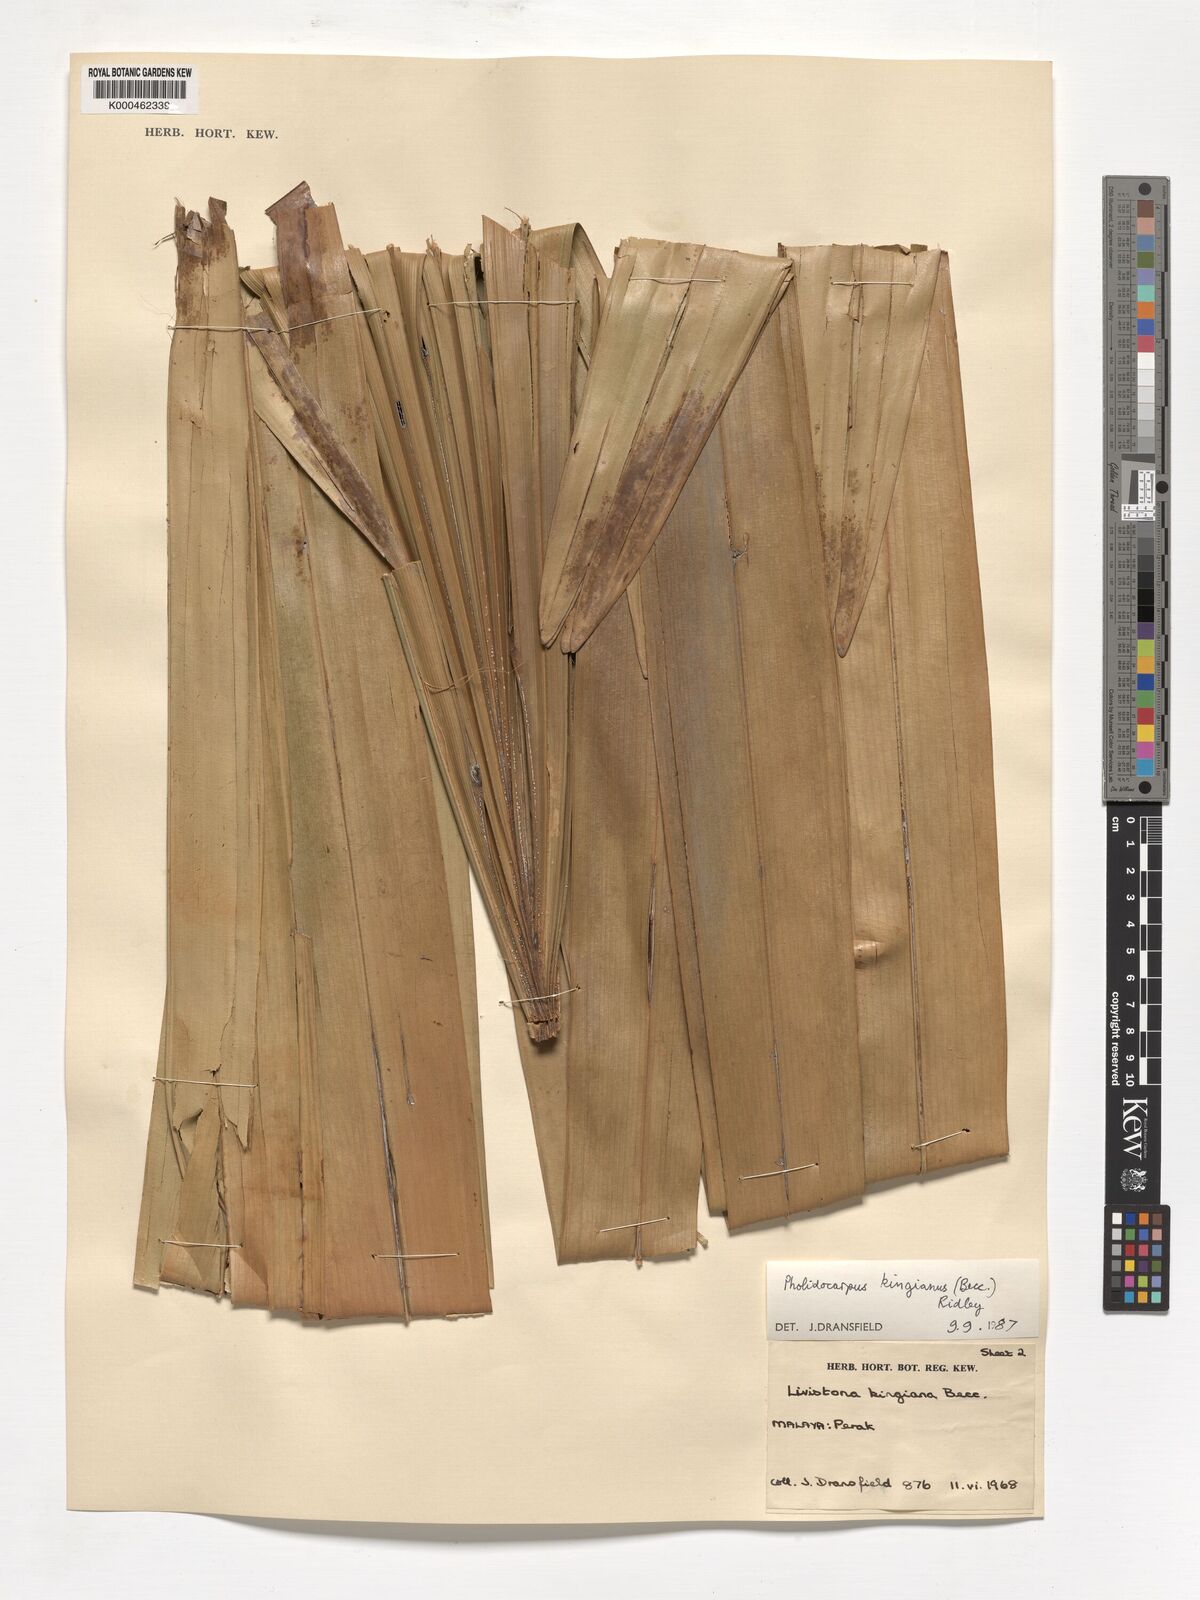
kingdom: Plantae
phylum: Tracheophyta
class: Liliopsida
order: Arecales
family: Arecaceae
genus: Pholidocarpus
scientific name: Pholidocarpus kingianus
